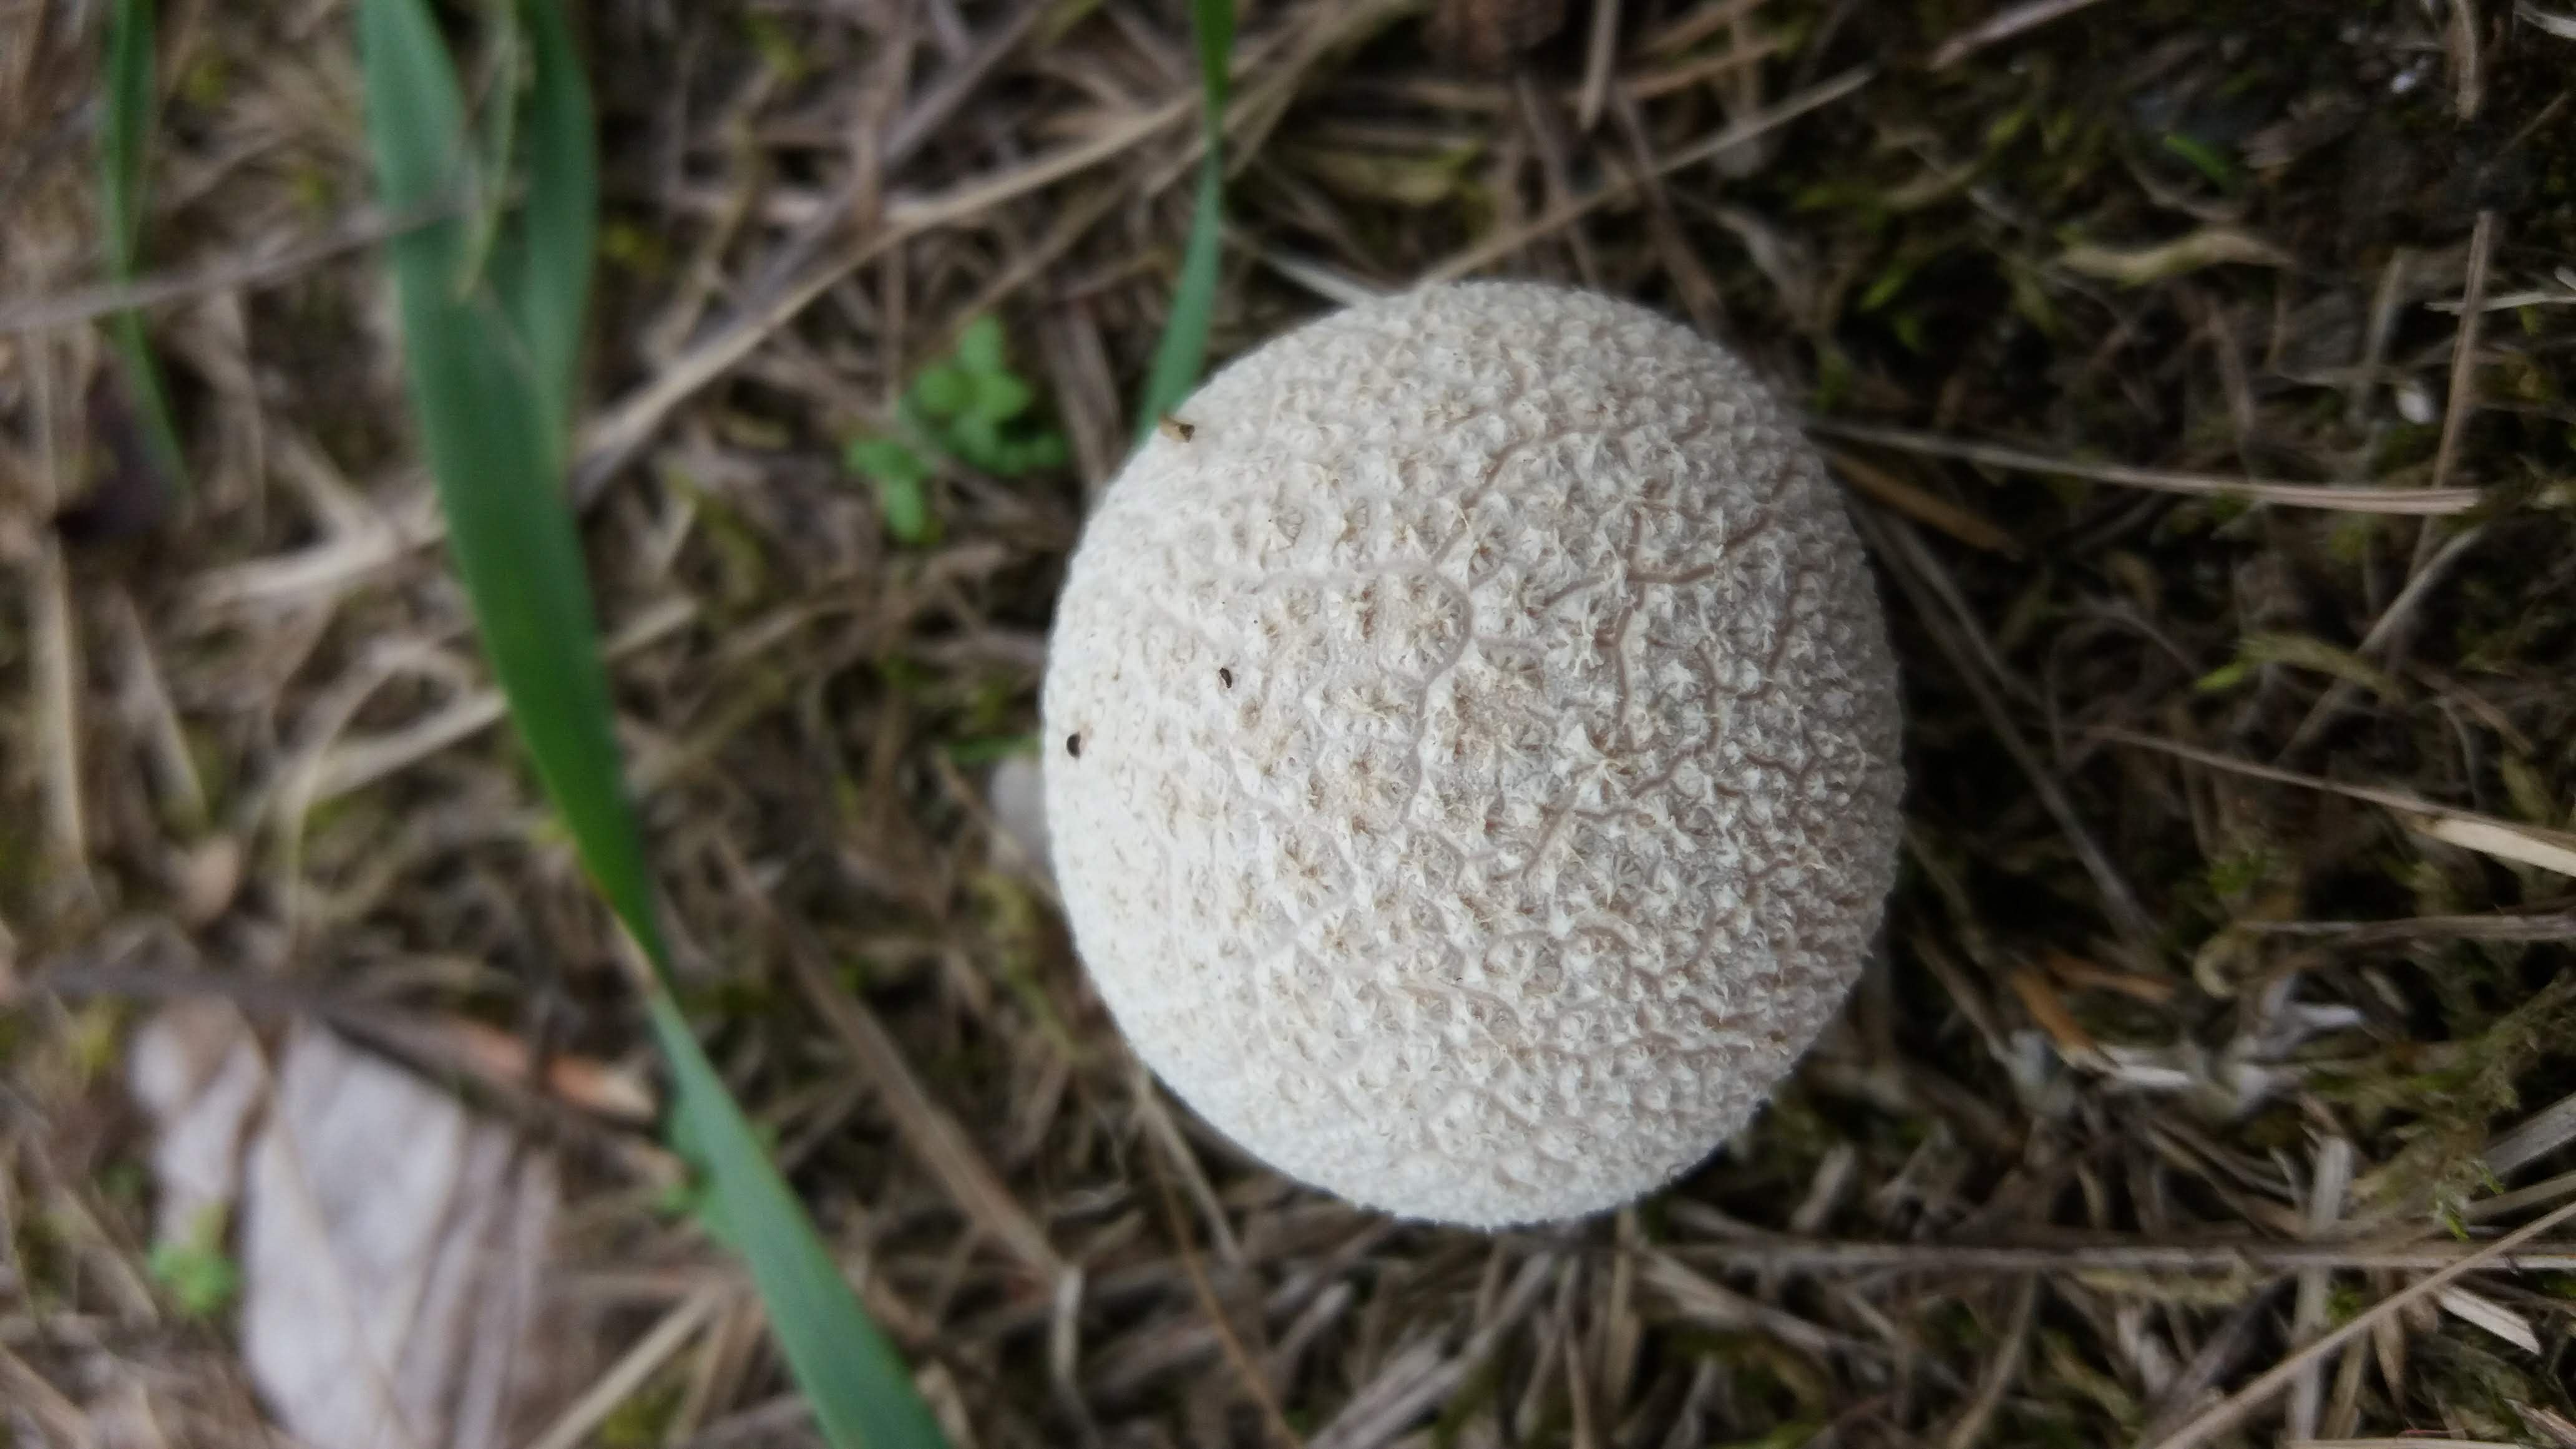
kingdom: Fungi
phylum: Basidiomycota
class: Agaricomycetes
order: Agaricales
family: Agaricaceae
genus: Lycoperdon
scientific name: Lycoperdon
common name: støvbold
